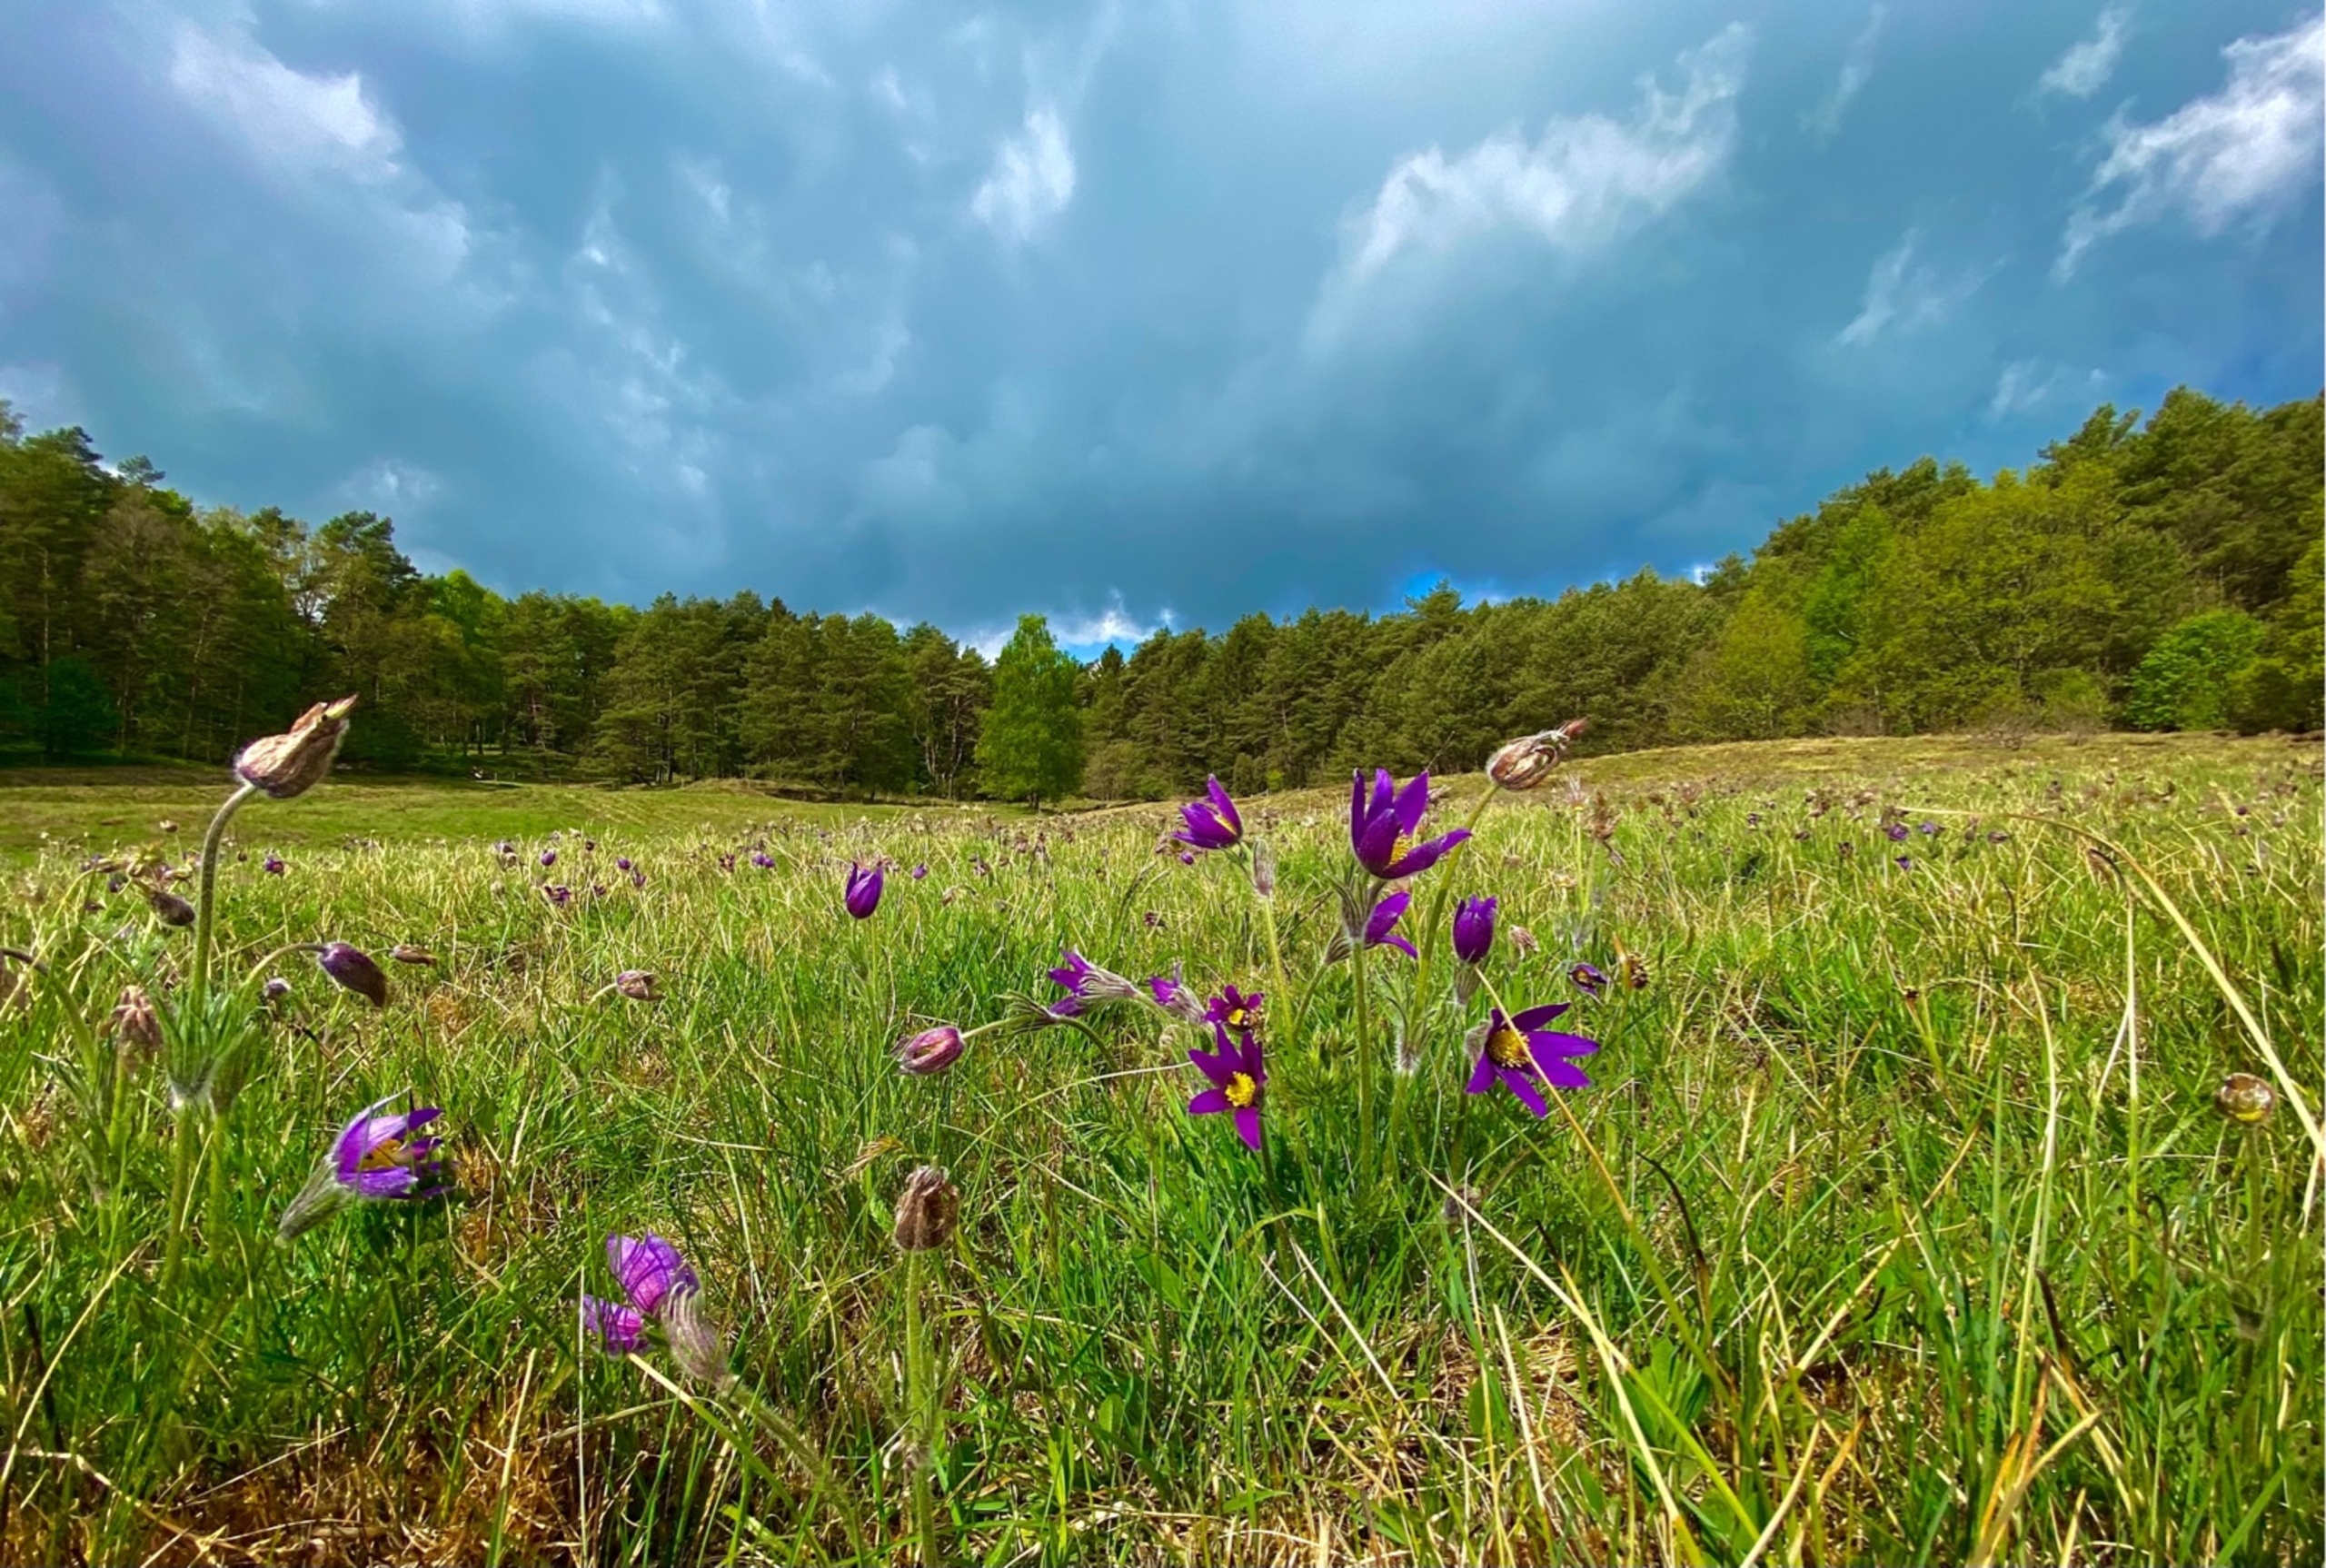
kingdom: Plantae
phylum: Tracheophyta
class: Magnoliopsida
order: Ranunculales
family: Ranunculaceae
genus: Pulsatilla
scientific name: Pulsatilla vulgaris
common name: Opret kobjælde
